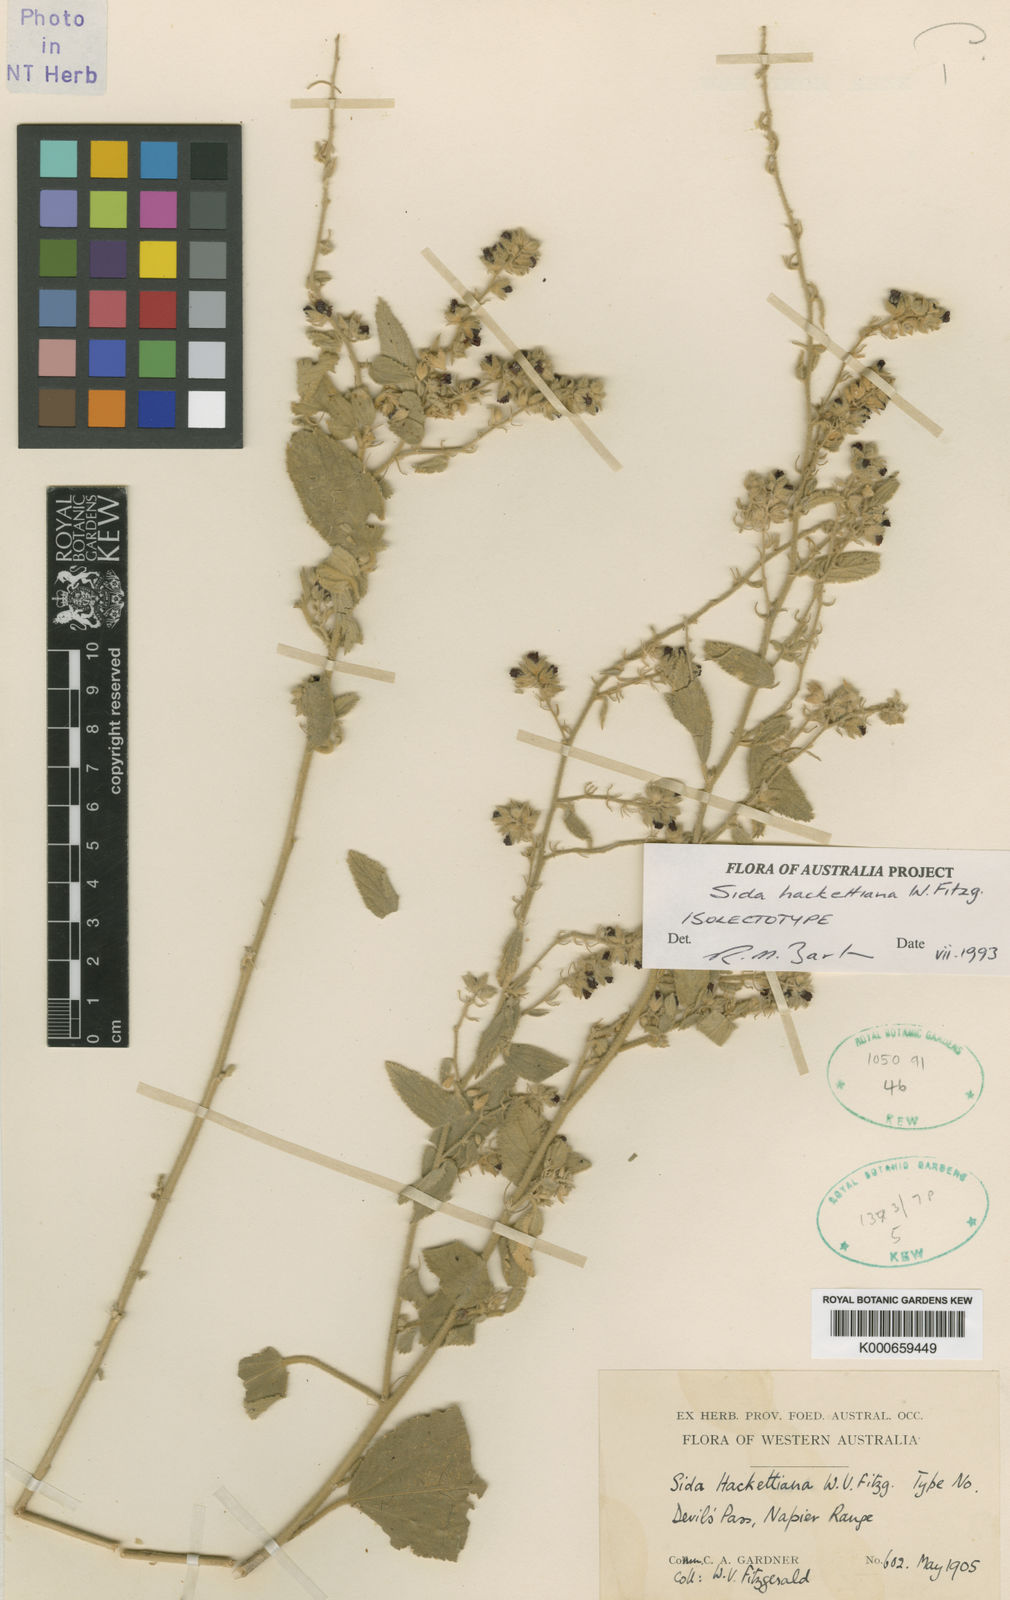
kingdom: Plantae
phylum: Tracheophyta
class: Magnoliopsida
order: Malvales
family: Malvaceae
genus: Sida
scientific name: Sida hackettiana
